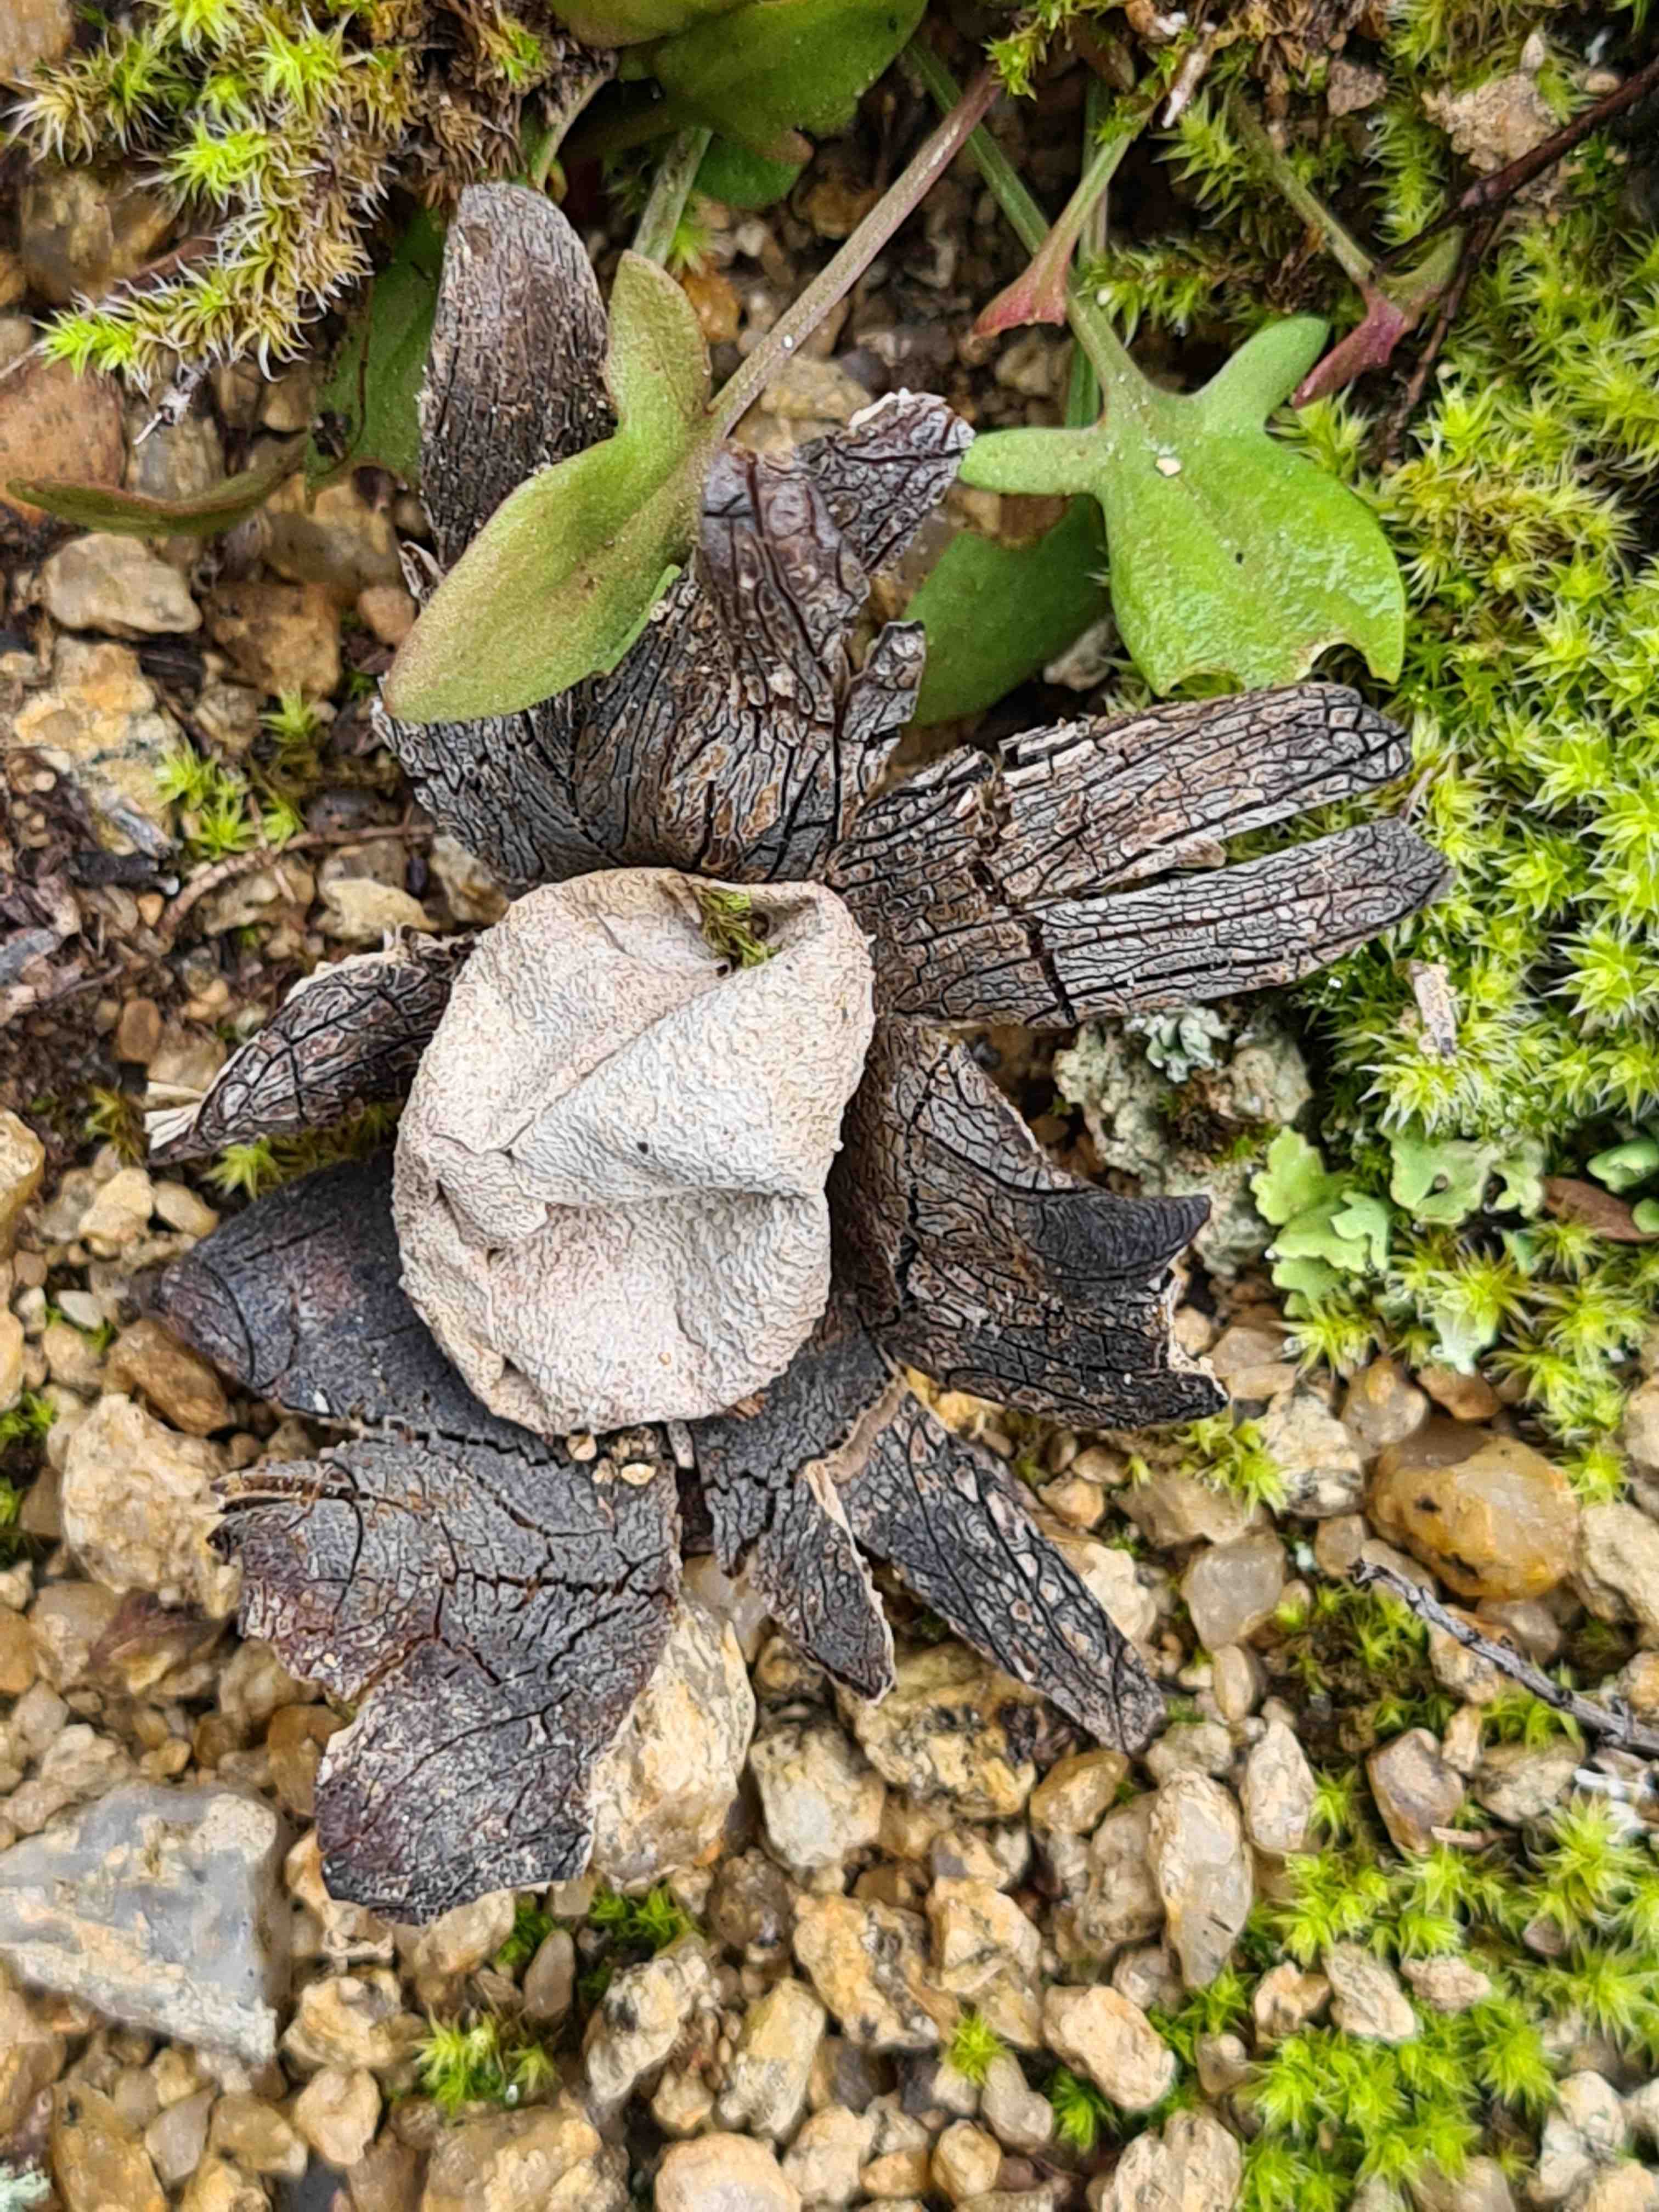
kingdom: Fungi
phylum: Basidiomycota
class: Agaricomycetes
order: Boletales
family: Diplocystidiaceae
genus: Astraeus
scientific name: Astraeus
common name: hygrometerstjerne
